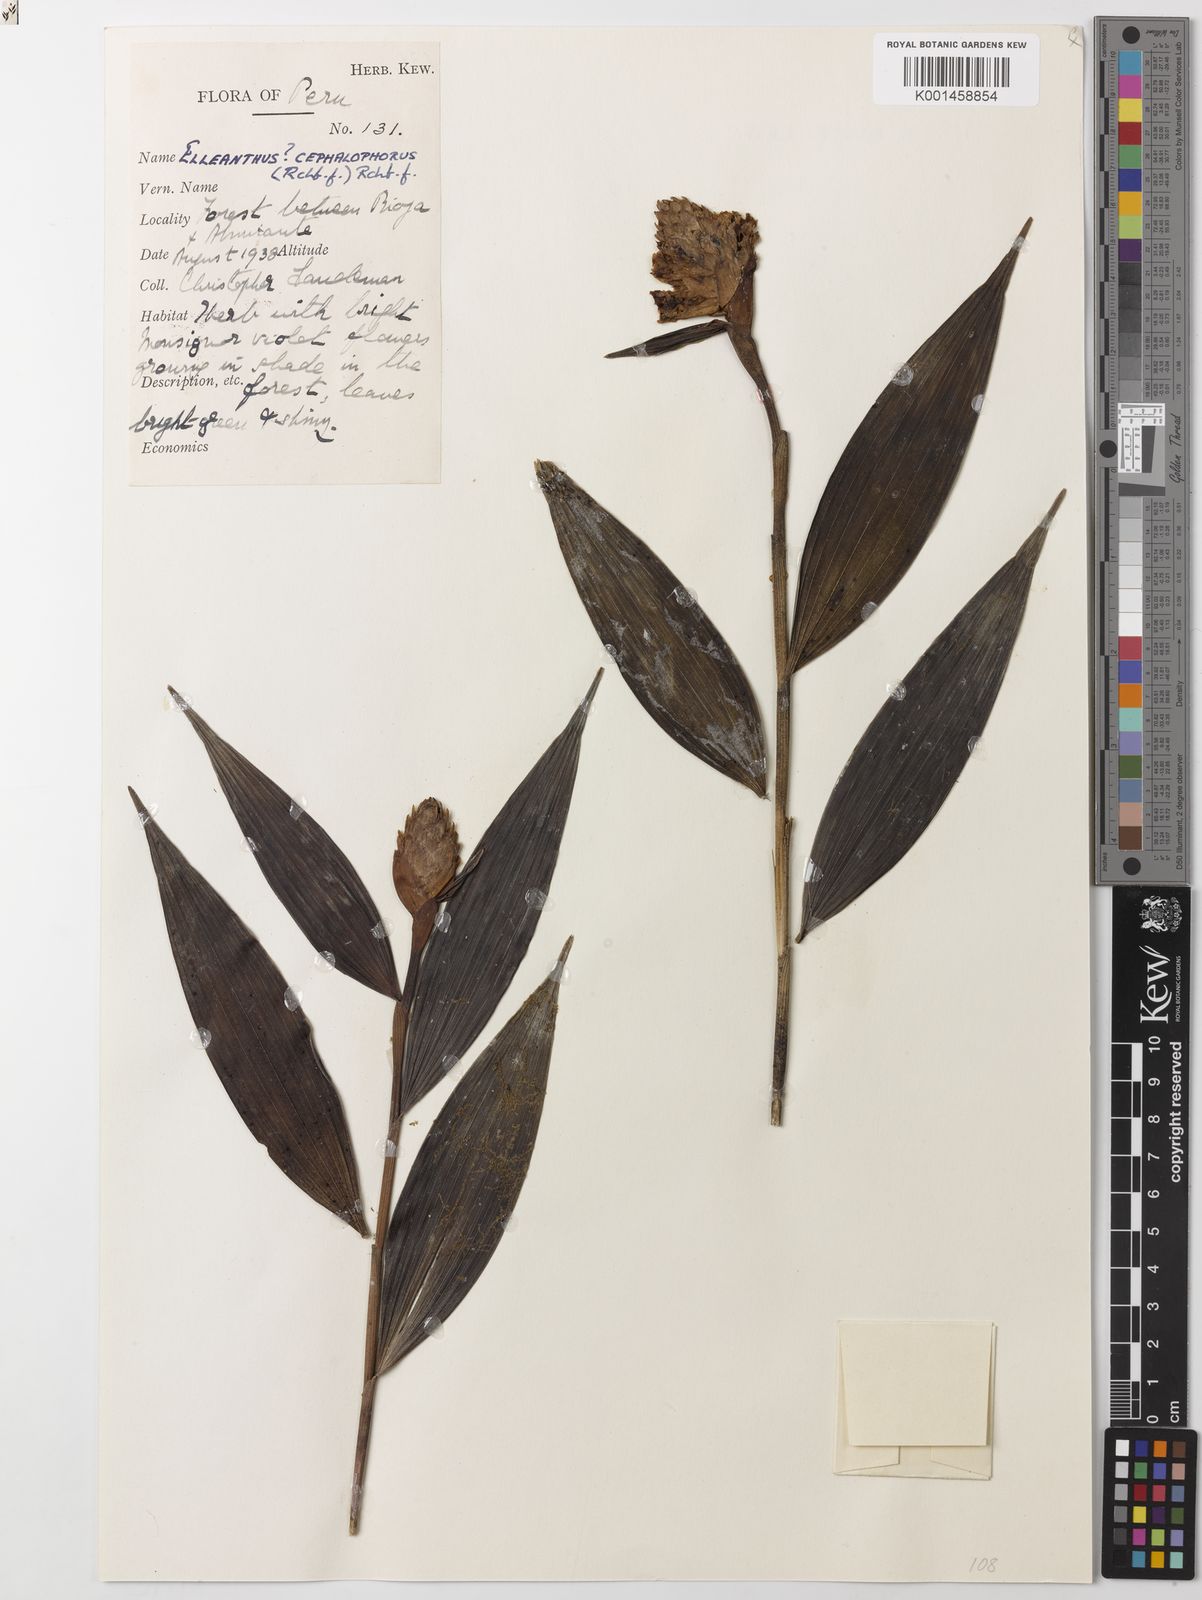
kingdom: Plantae
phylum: Tracheophyta
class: Liliopsida
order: Asparagales
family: Orchidaceae
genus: Elleanthus
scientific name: Elleanthus capitatus
